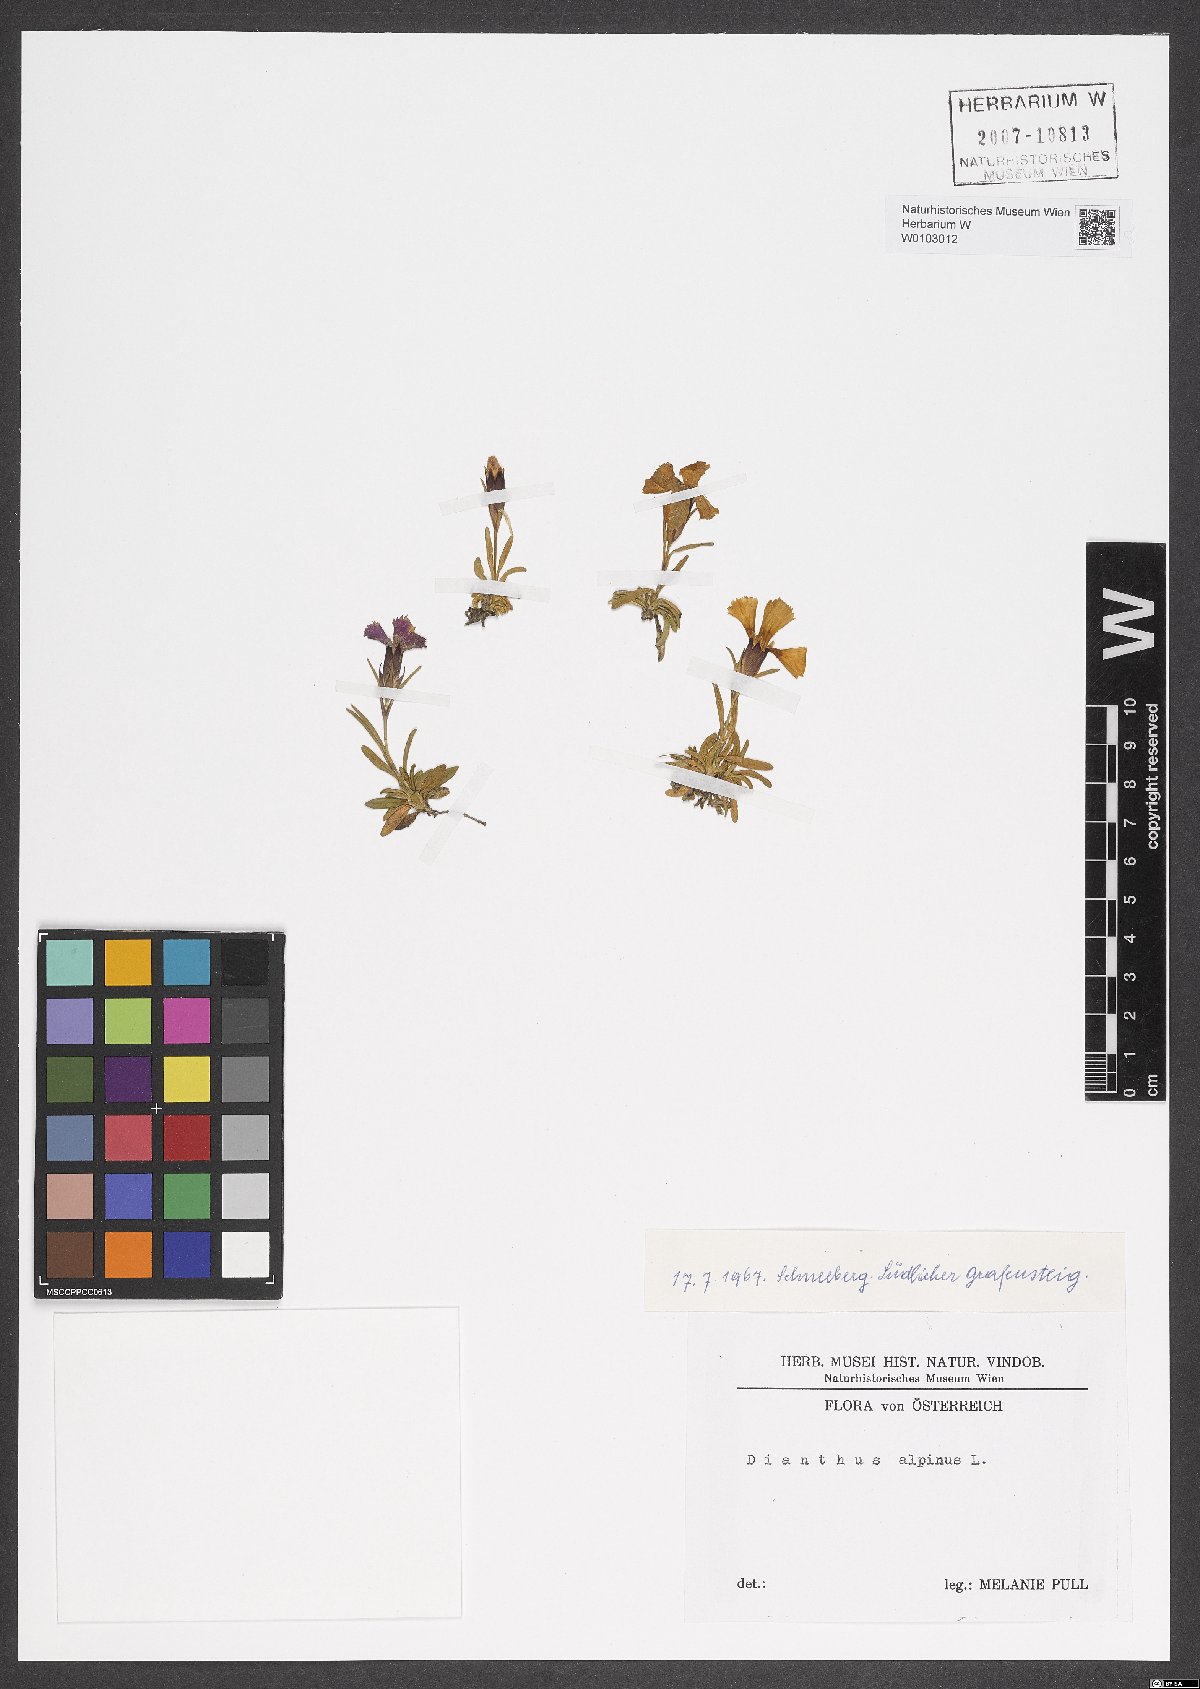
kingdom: Plantae
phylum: Tracheophyta
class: Magnoliopsida
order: Caryophyllales
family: Caryophyllaceae
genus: Dianthus
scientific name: Dianthus alpinus
